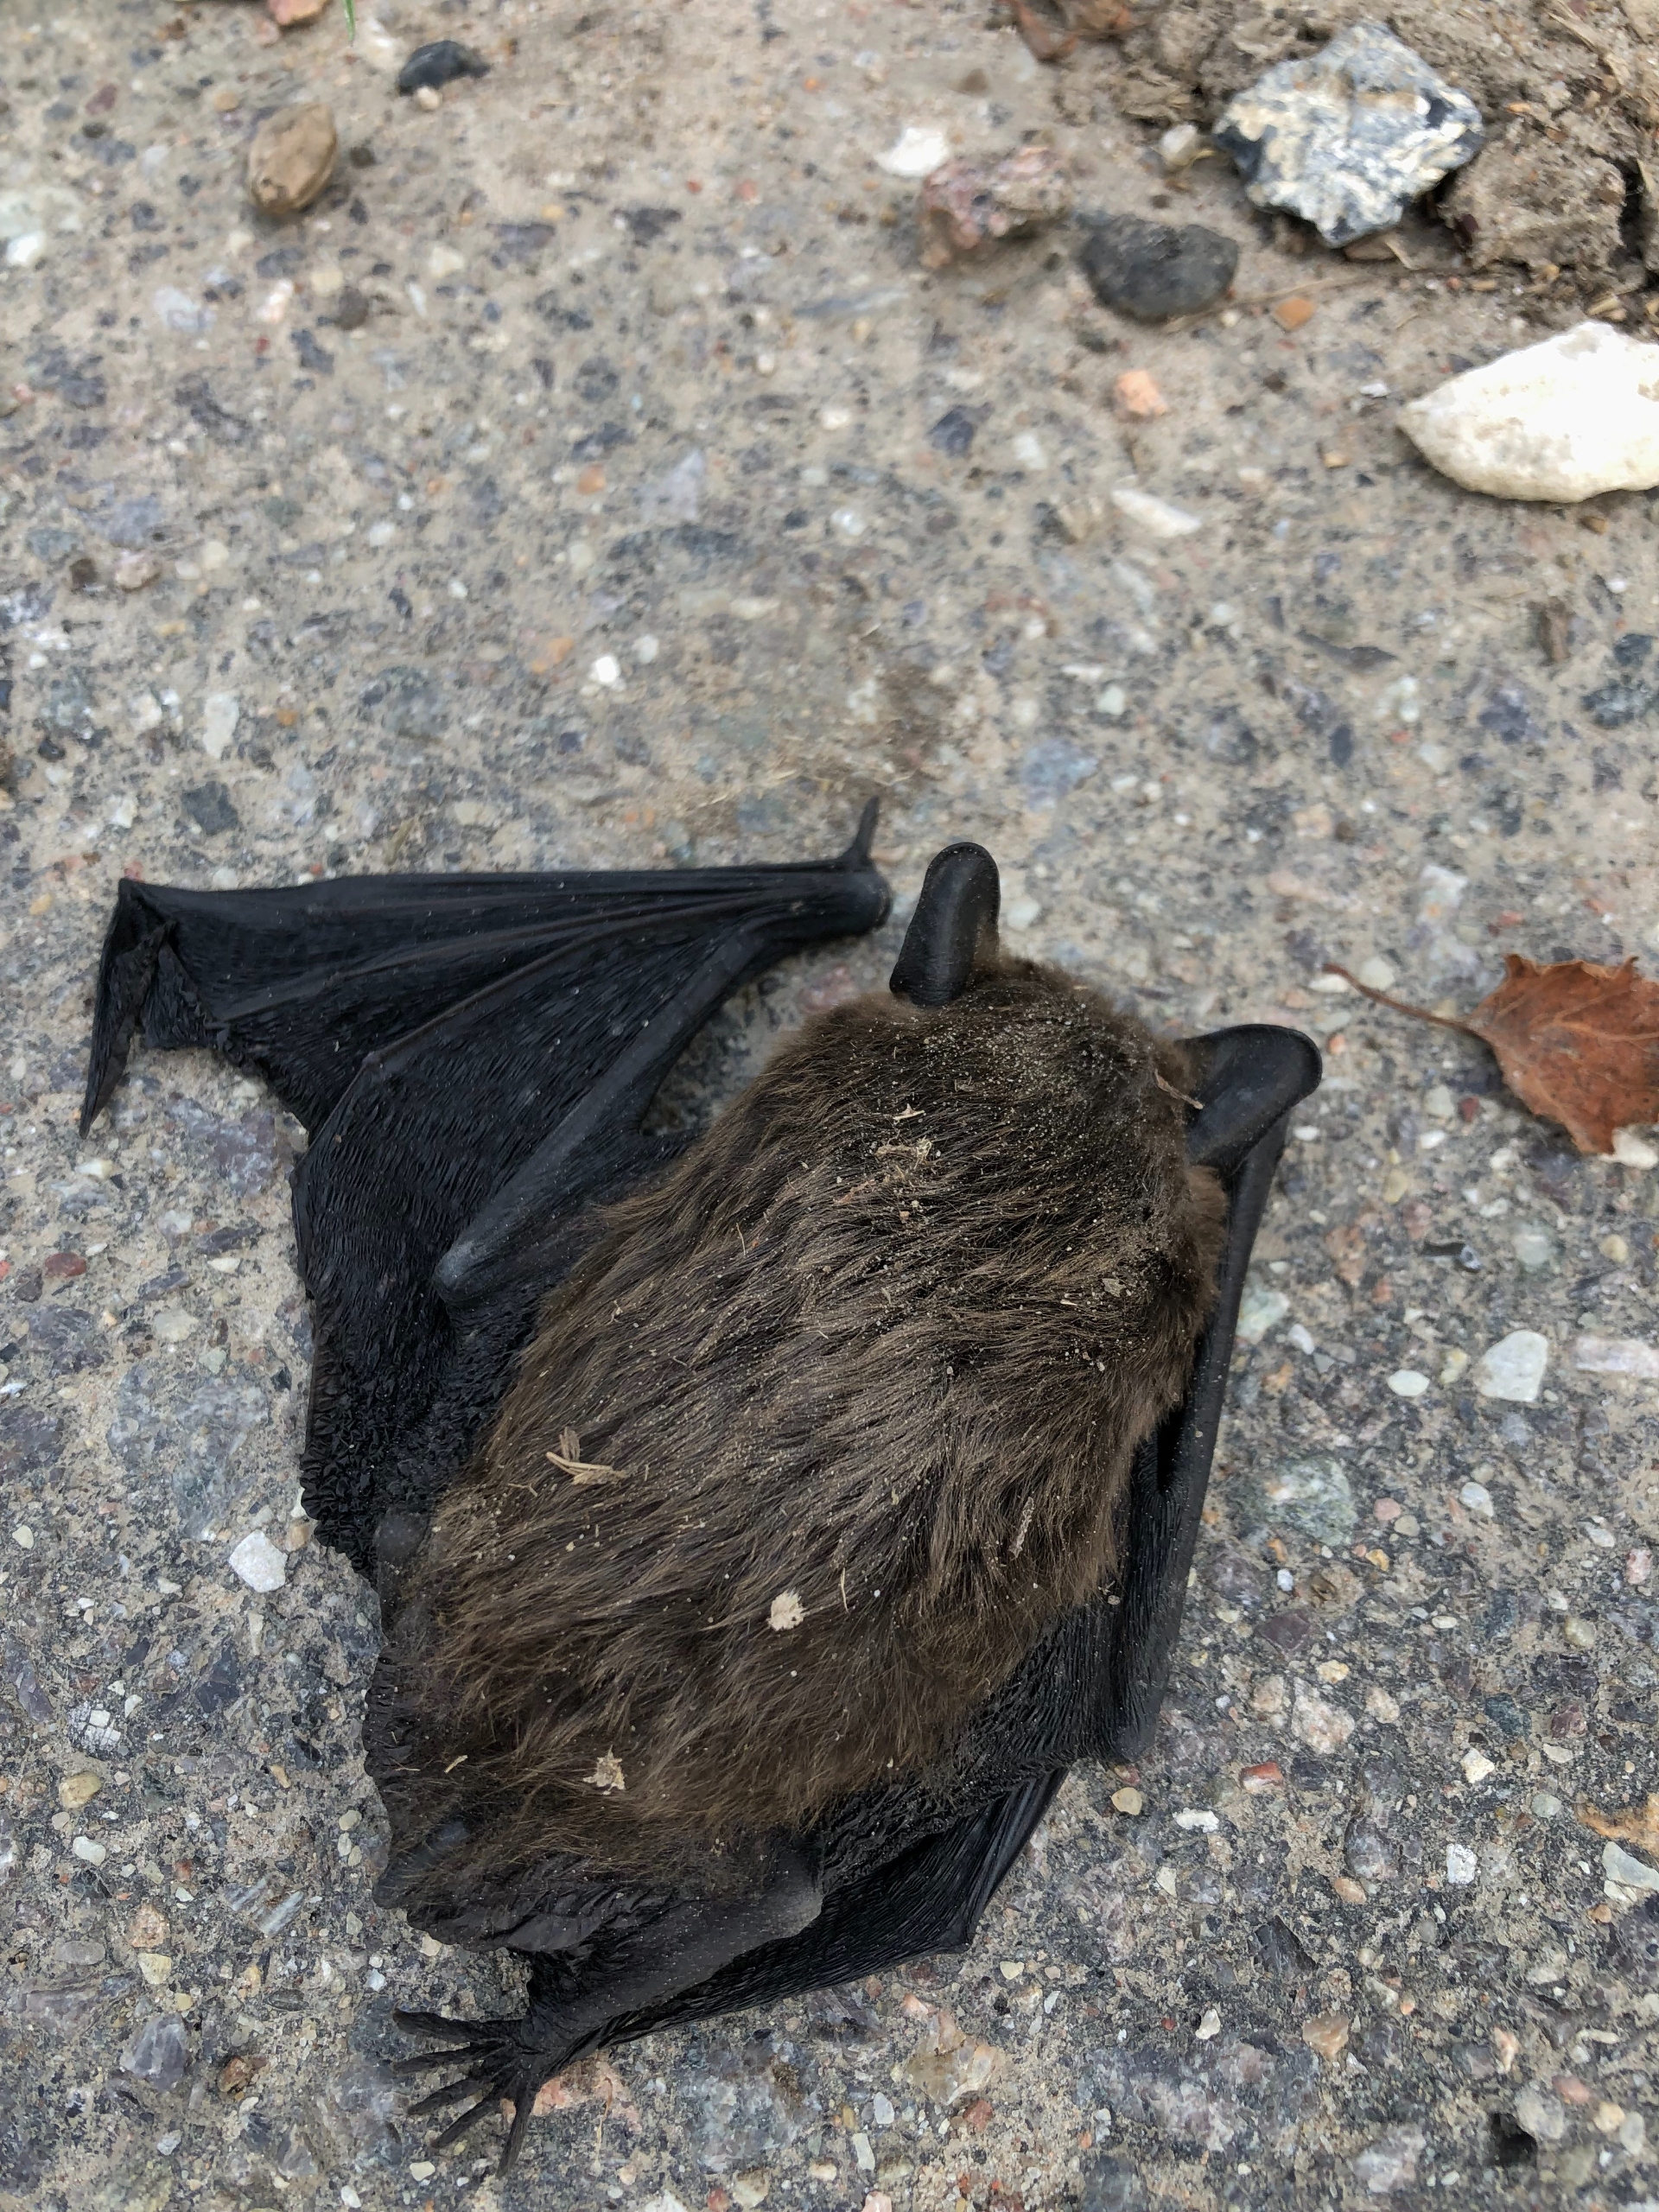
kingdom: Animalia
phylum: Chordata
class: Mammalia
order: Chiroptera
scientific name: Chiroptera
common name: Flagermus
